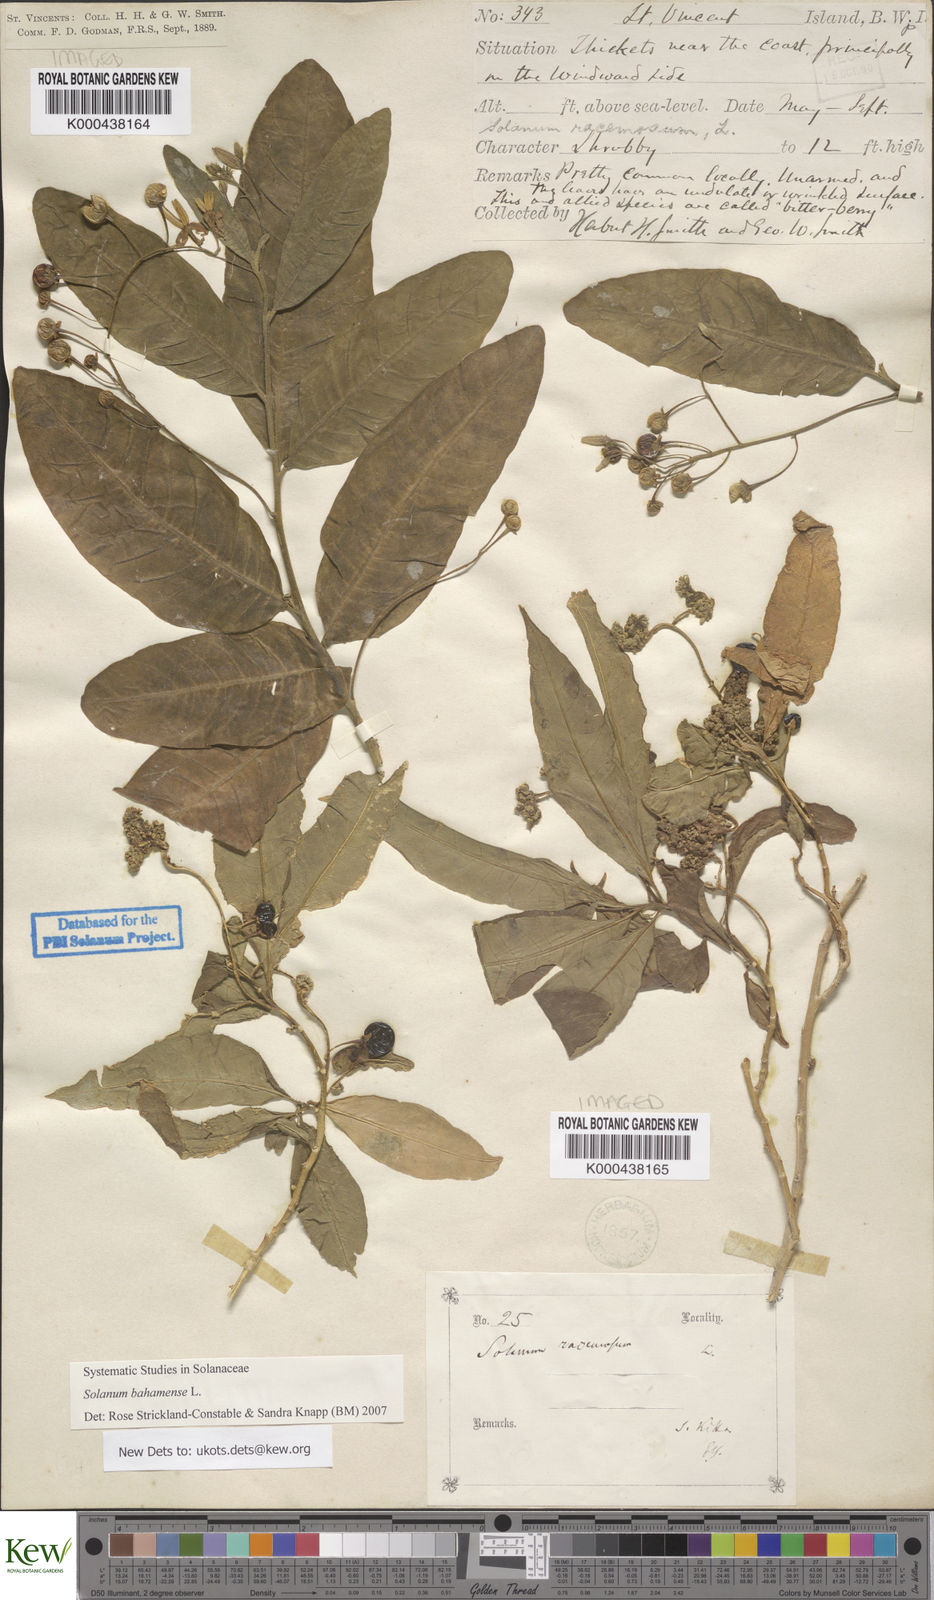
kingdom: Plantae
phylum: Tracheophyta
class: Magnoliopsida
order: Solanales
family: Solanaceae
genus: Solanum
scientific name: Solanum bahamense
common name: Canker-berry
